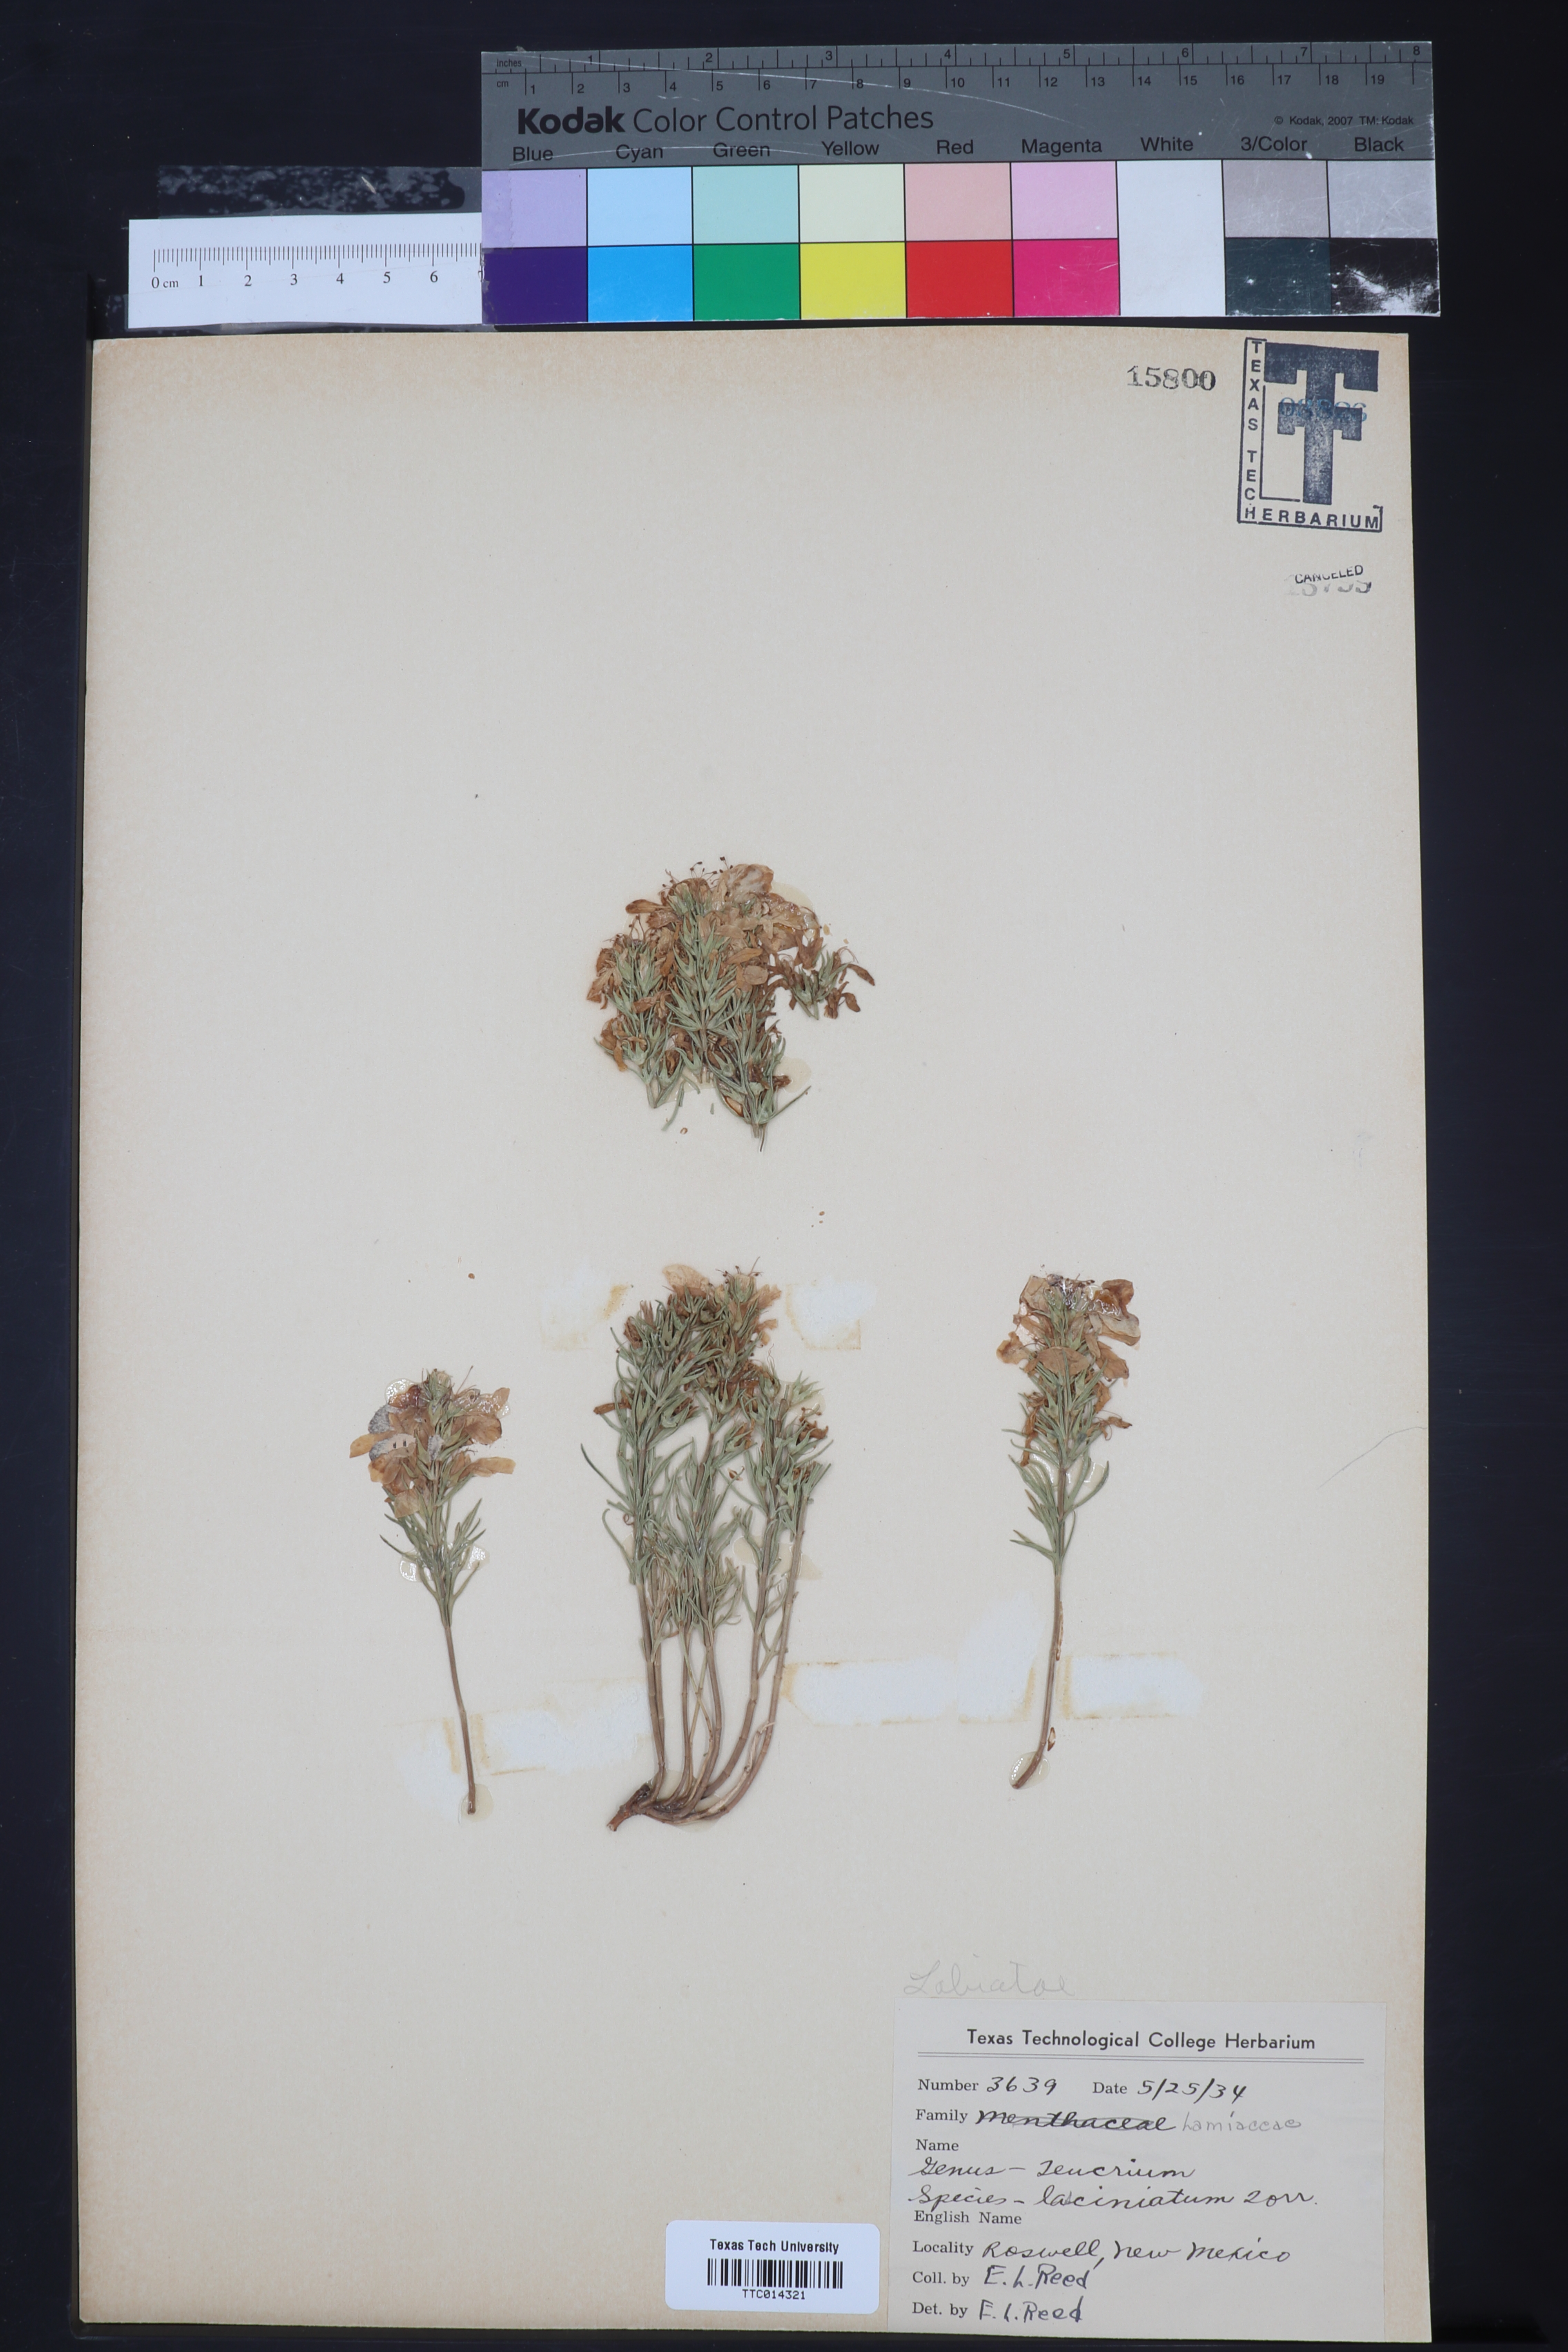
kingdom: Plantae
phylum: Tracheophyta
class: Magnoliopsida
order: Lamiales
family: Lamiaceae
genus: Teucrium
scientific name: Teucrium laciniatum
